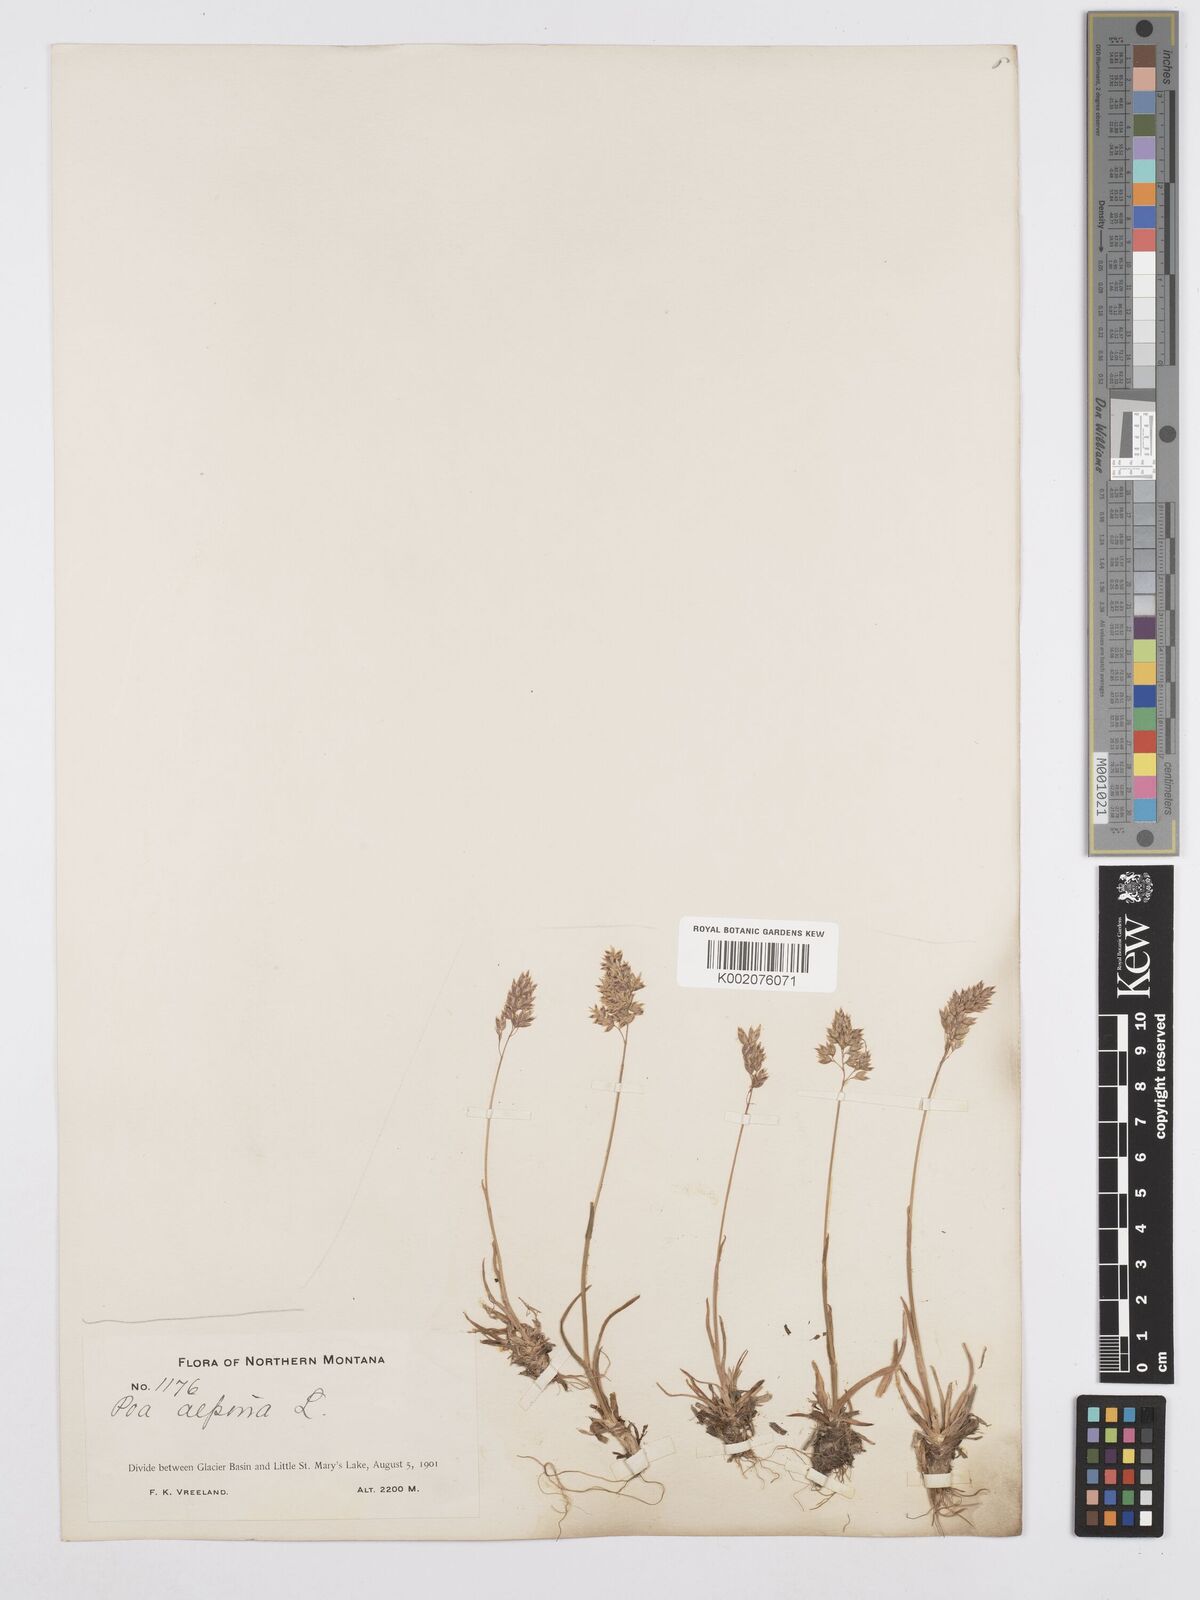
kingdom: Plantae
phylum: Tracheophyta
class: Liliopsida
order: Poales
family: Poaceae
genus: Poa
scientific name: Poa alpina
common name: Alpine bluegrass
